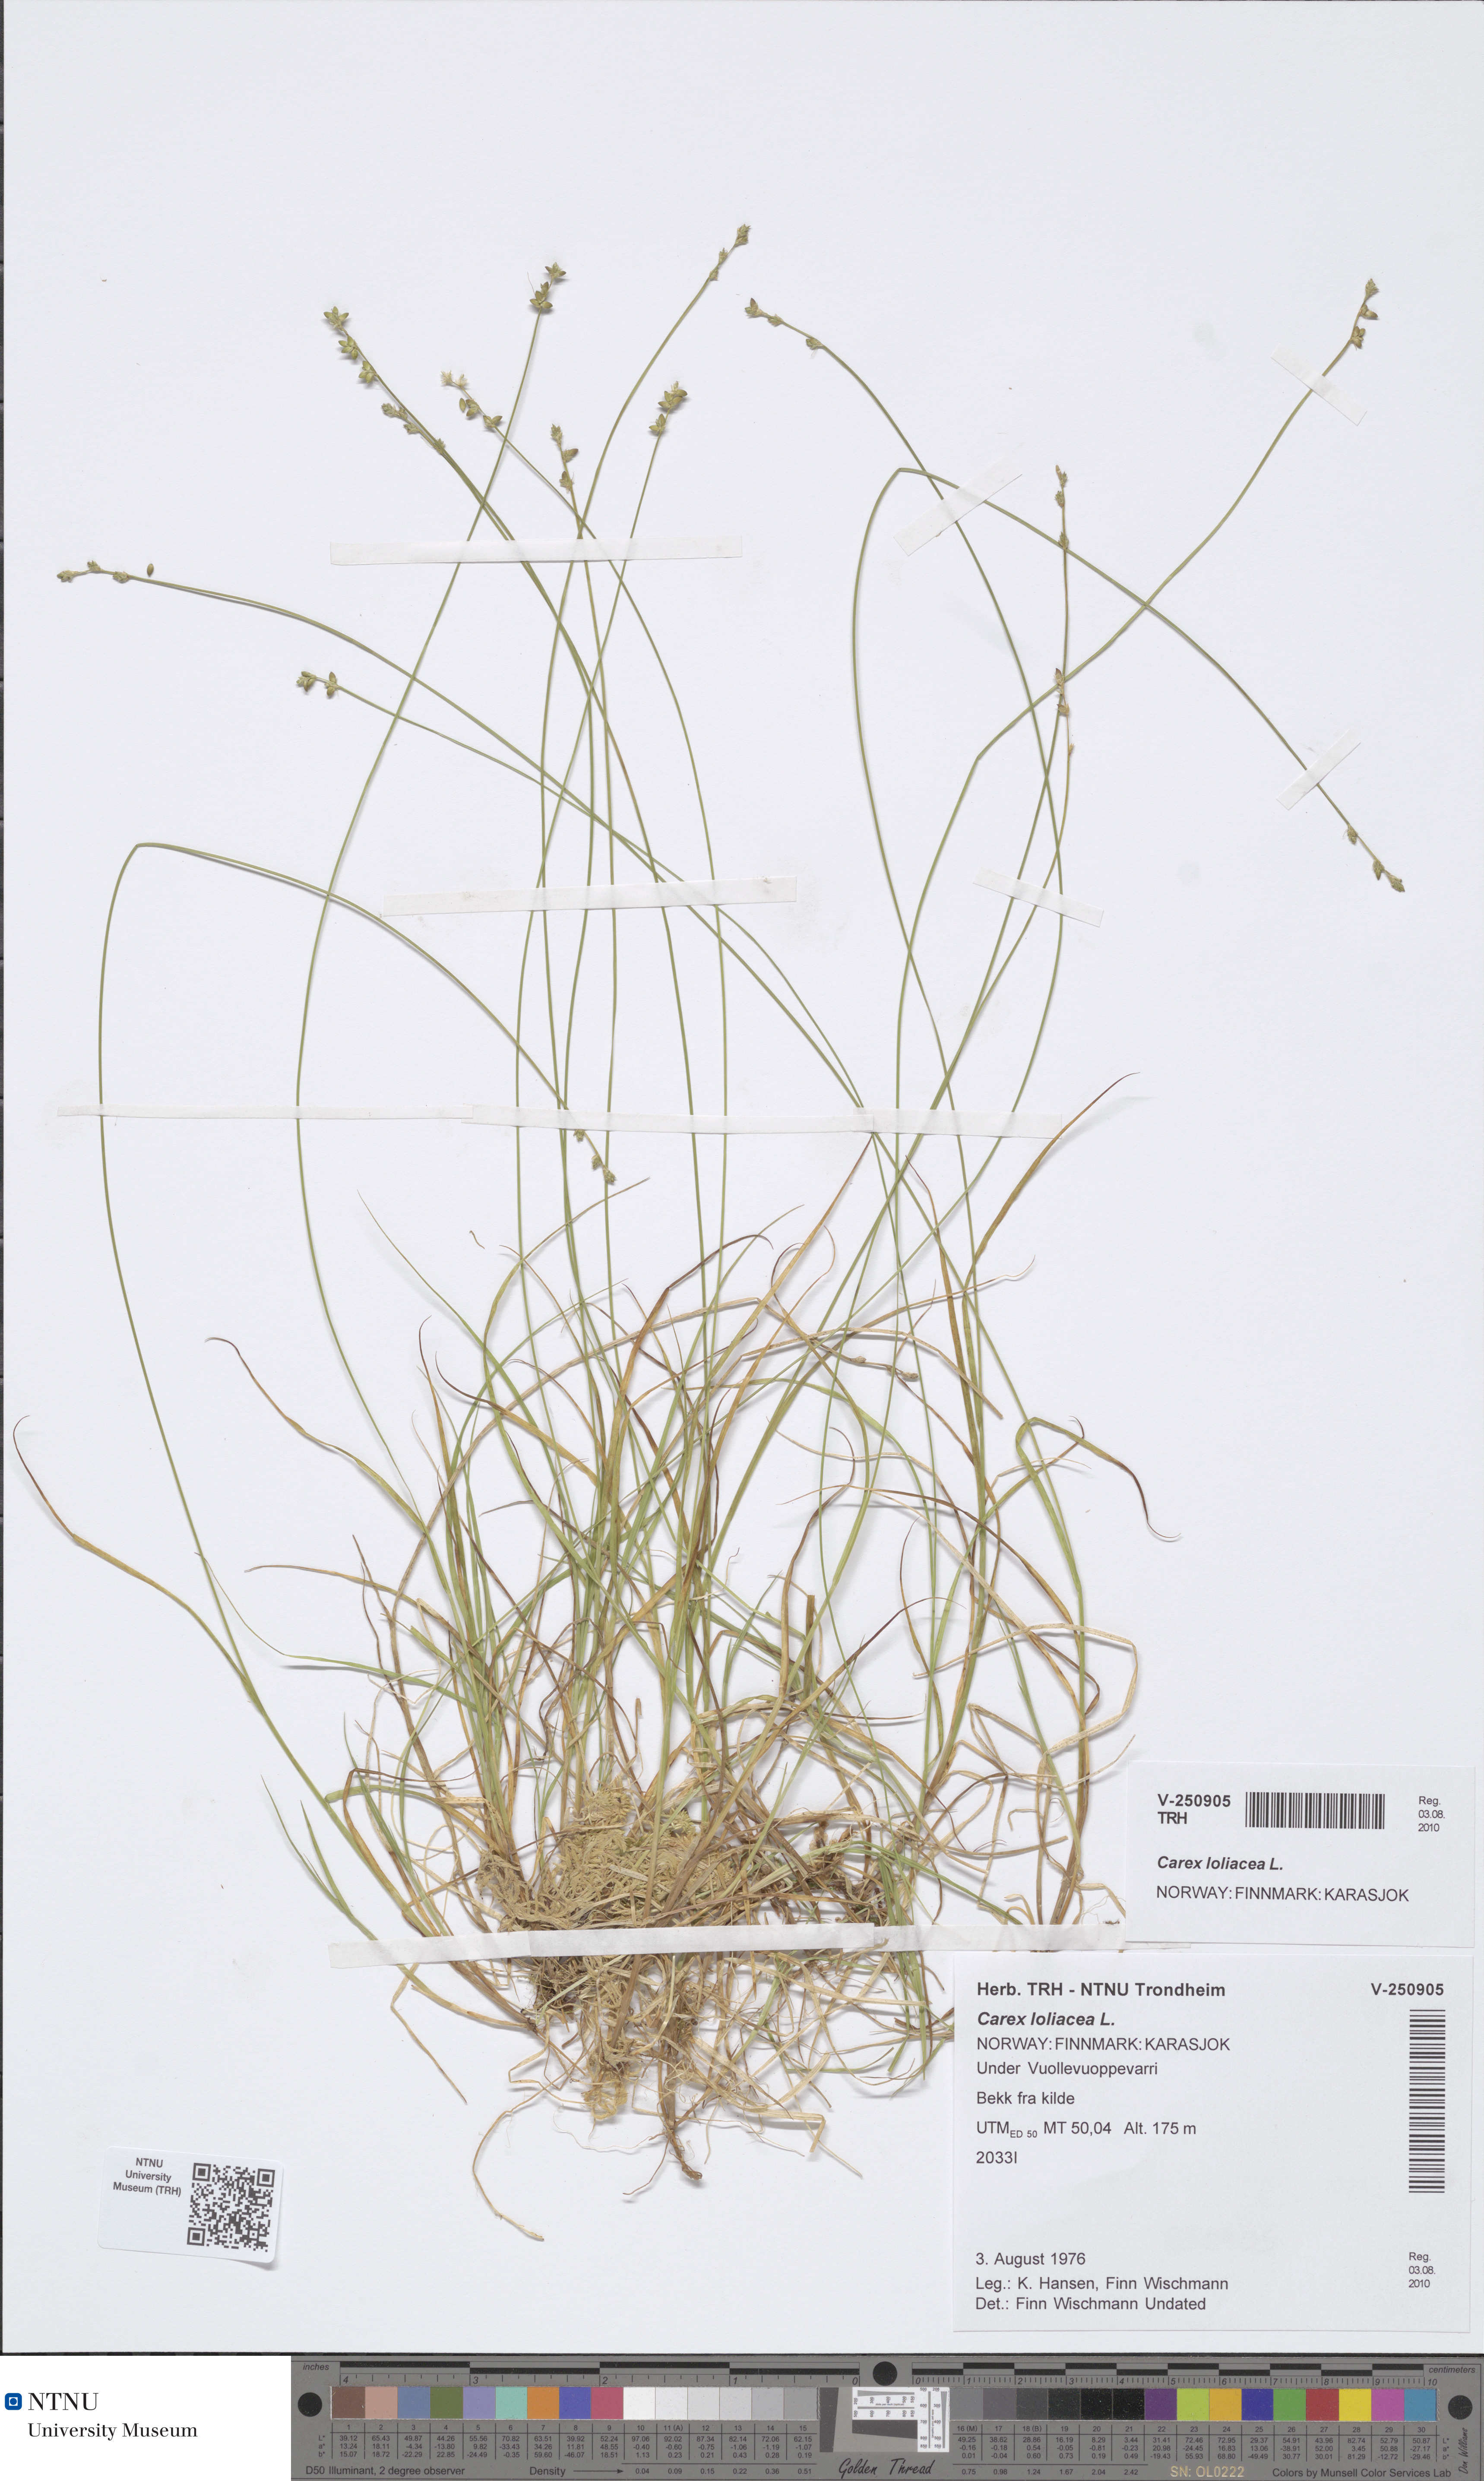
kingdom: Plantae
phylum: Tracheophyta
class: Liliopsida
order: Poales
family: Cyperaceae
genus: Carex
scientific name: Carex loliacea
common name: Ryegrass sedge
